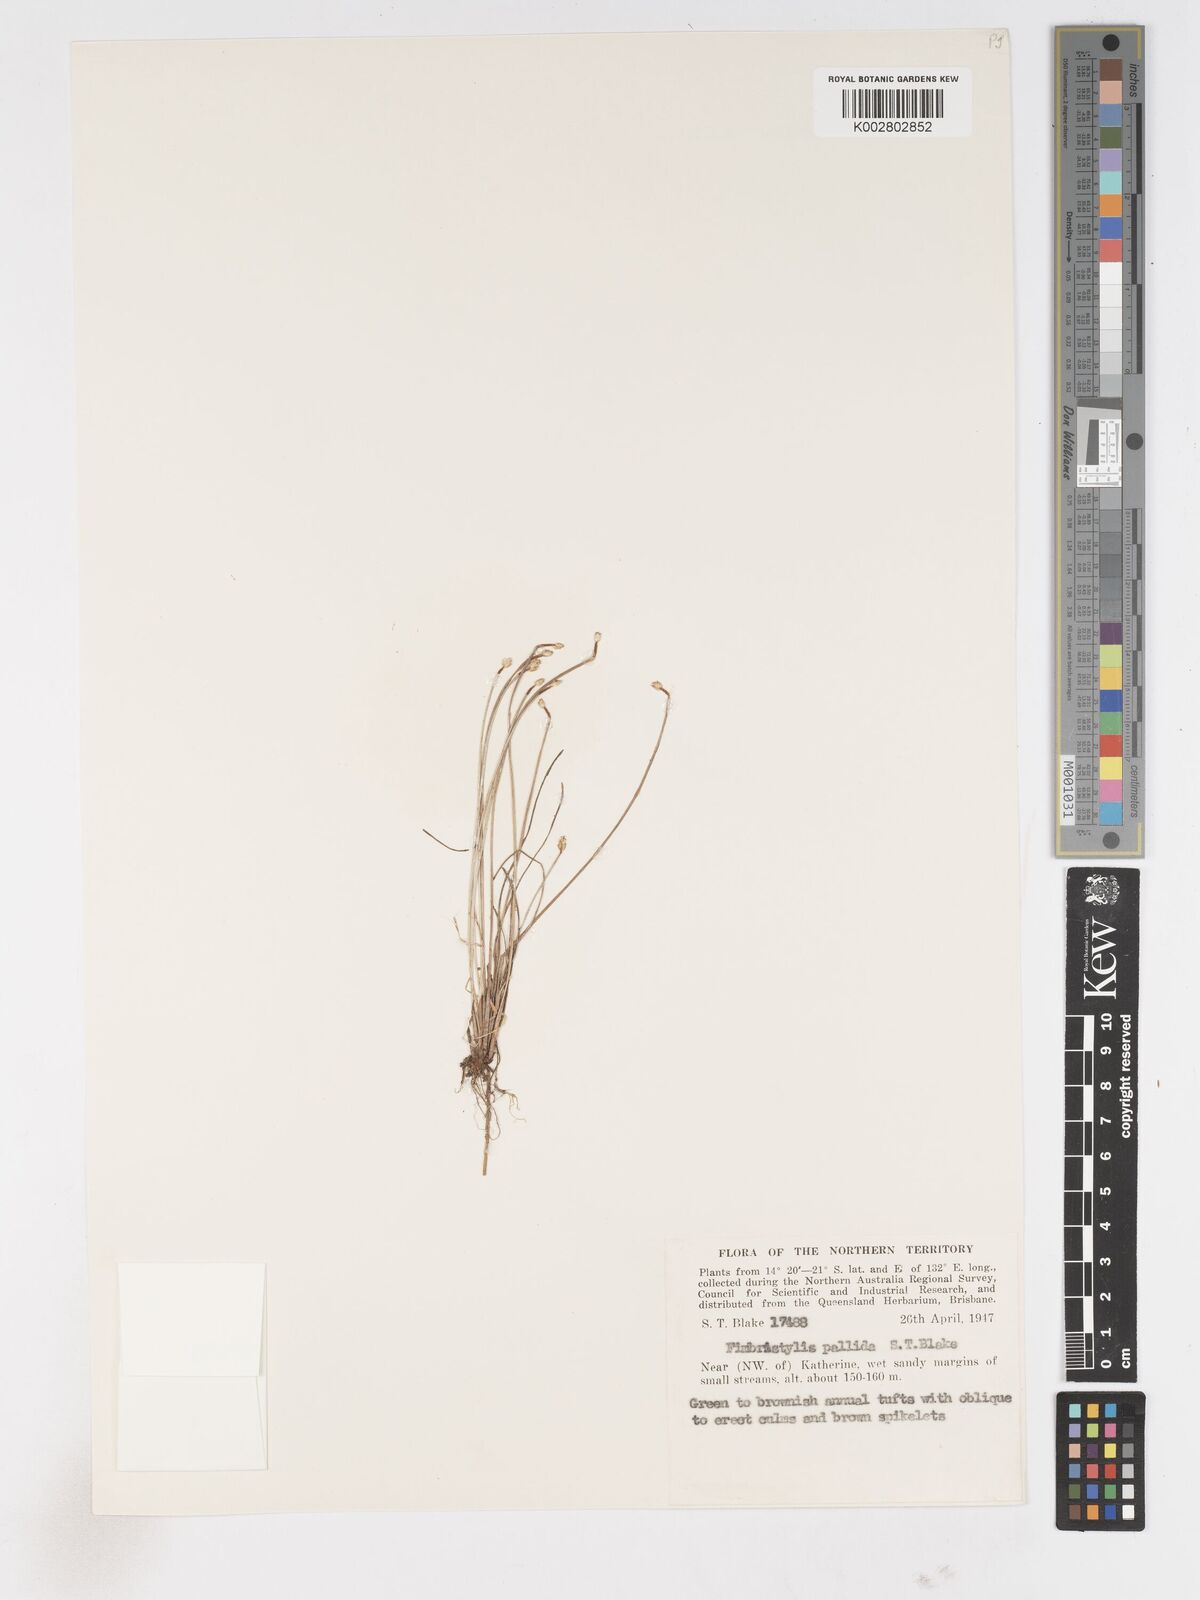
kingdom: Plantae
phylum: Tracheophyta
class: Liliopsida
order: Poales
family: Cyperaceae
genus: Fimbristylis
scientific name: Fimbristylis pallida
